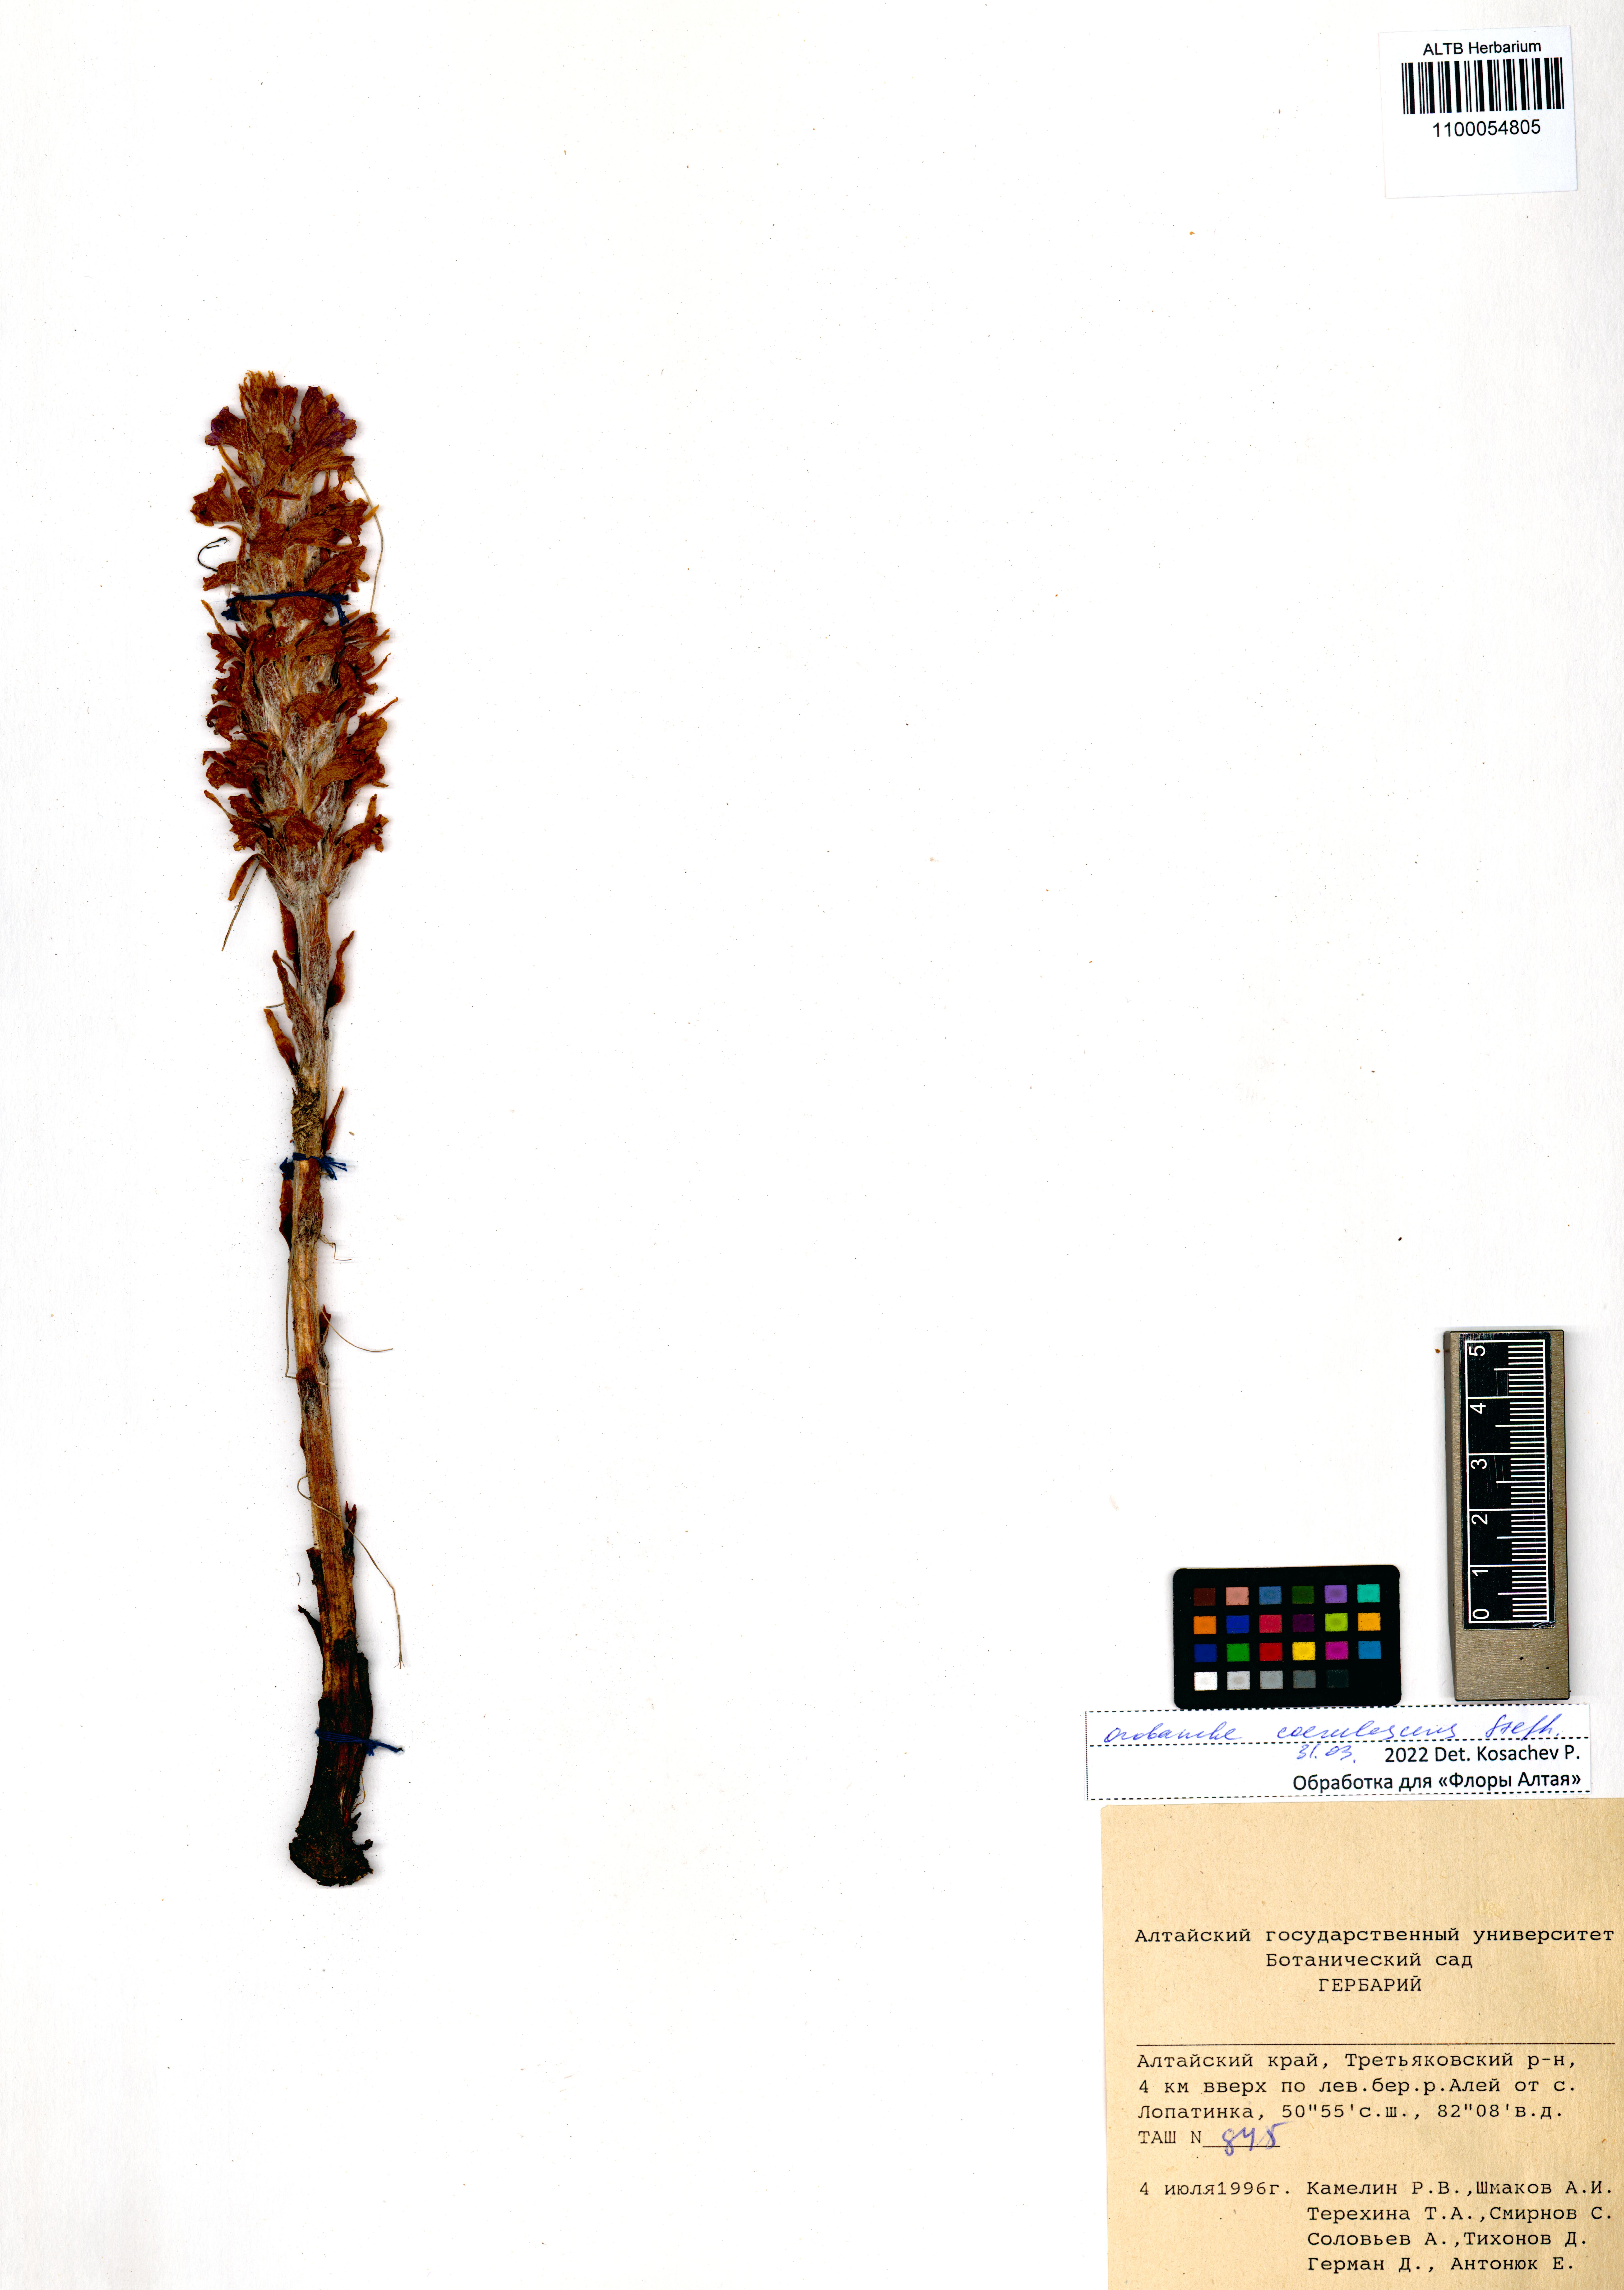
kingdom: Plantae
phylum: Tracheophyta
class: Magnoliopsida
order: Lamiales
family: Orobanchaceae
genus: Orobanche
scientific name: Orobanche coerulescens
